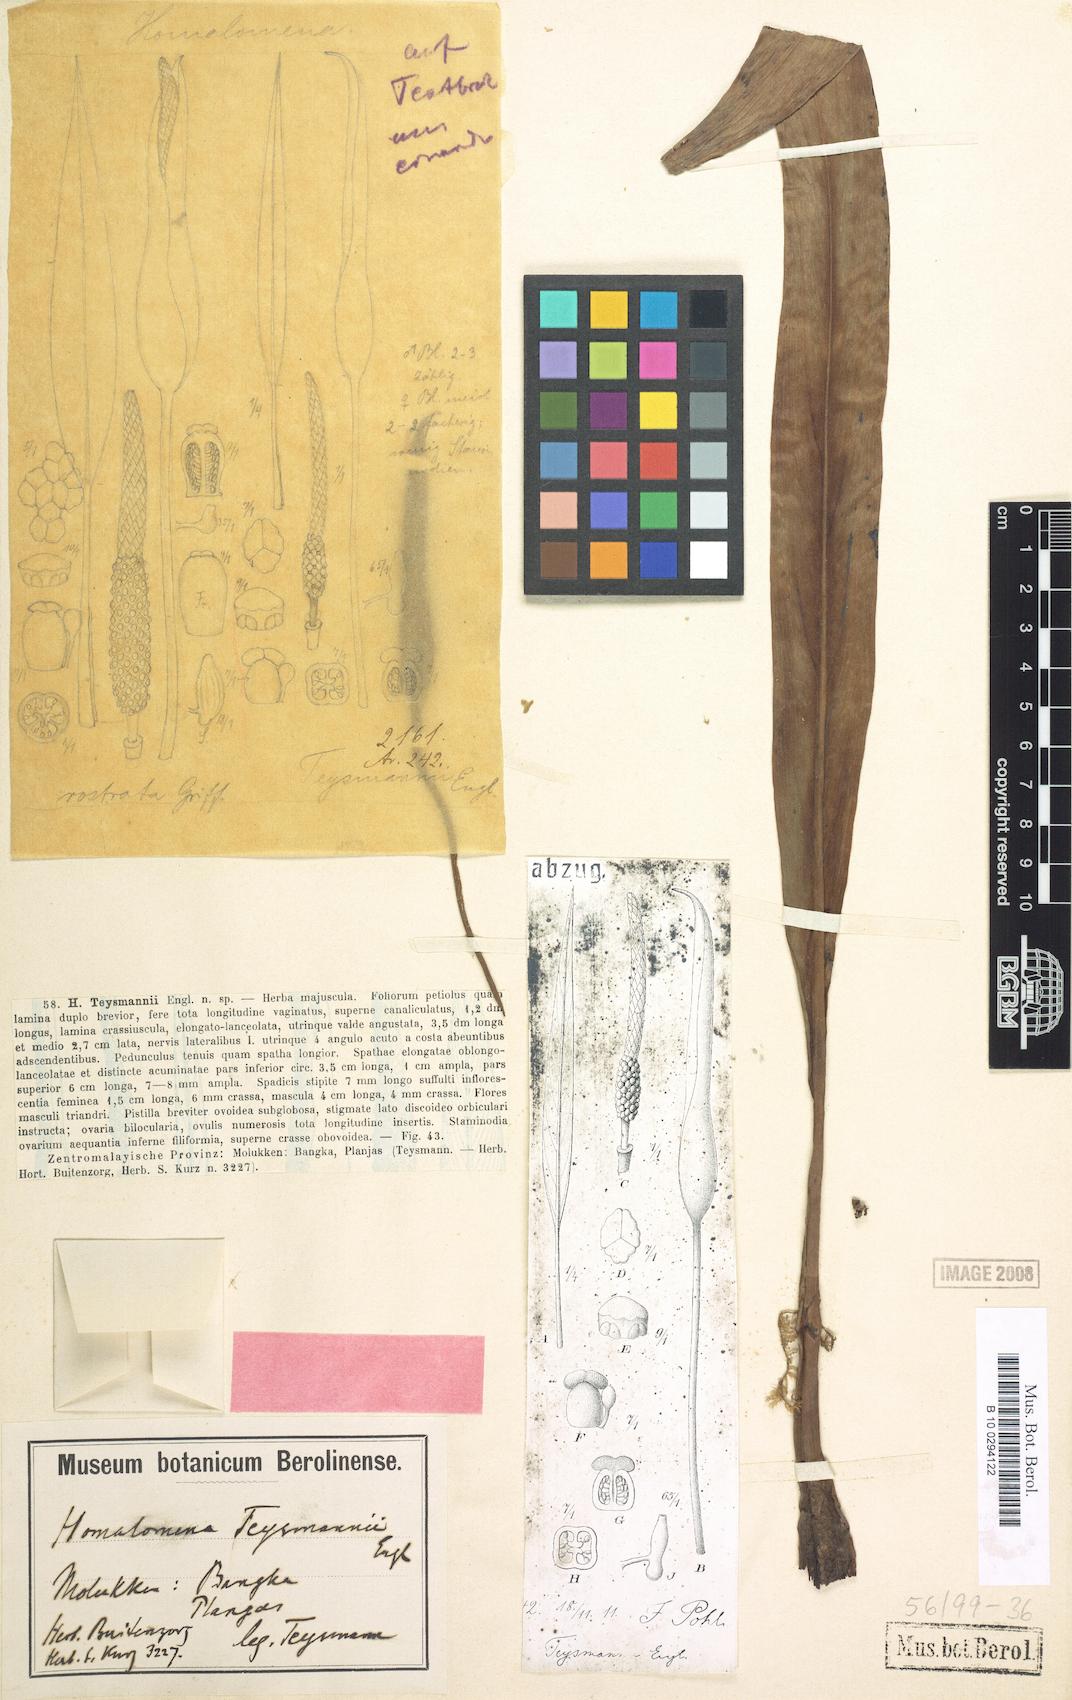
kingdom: Plantae
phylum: Tracheophyta
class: Liliopsida
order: Alismatales
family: Araceae
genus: Homalomena
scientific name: Homalomena rostrata
